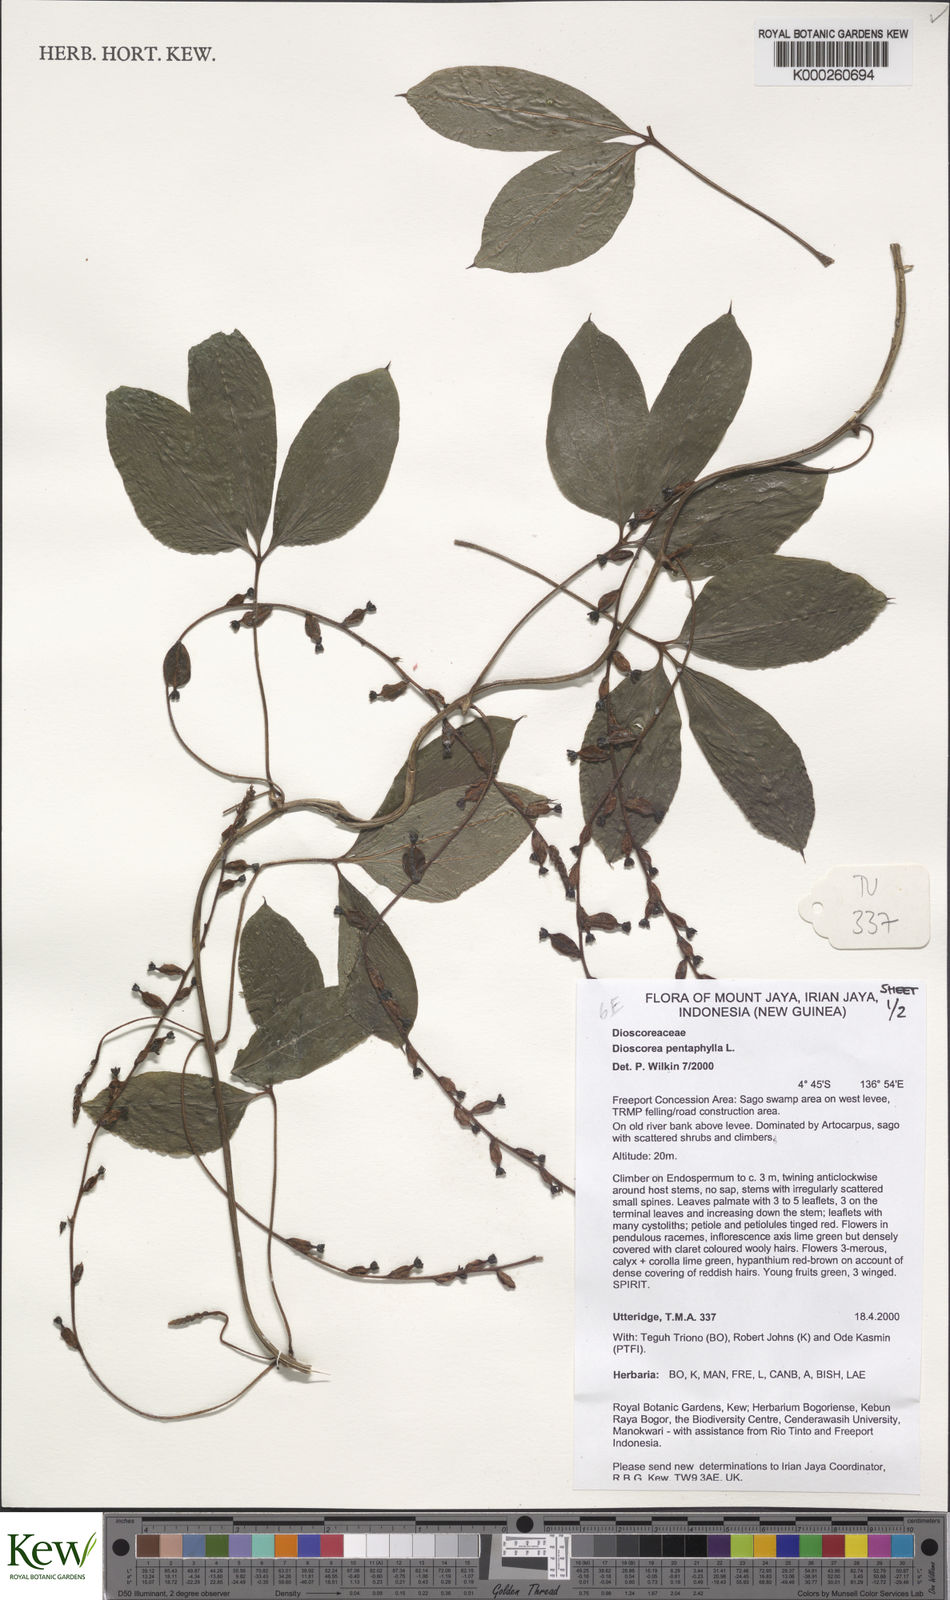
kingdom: Plantae
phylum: Tracheophyta
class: Liliopsida
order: Dioscoreales
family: Dioscoreaceae
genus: Dioscorea
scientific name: Dioscorea pentaphylla
